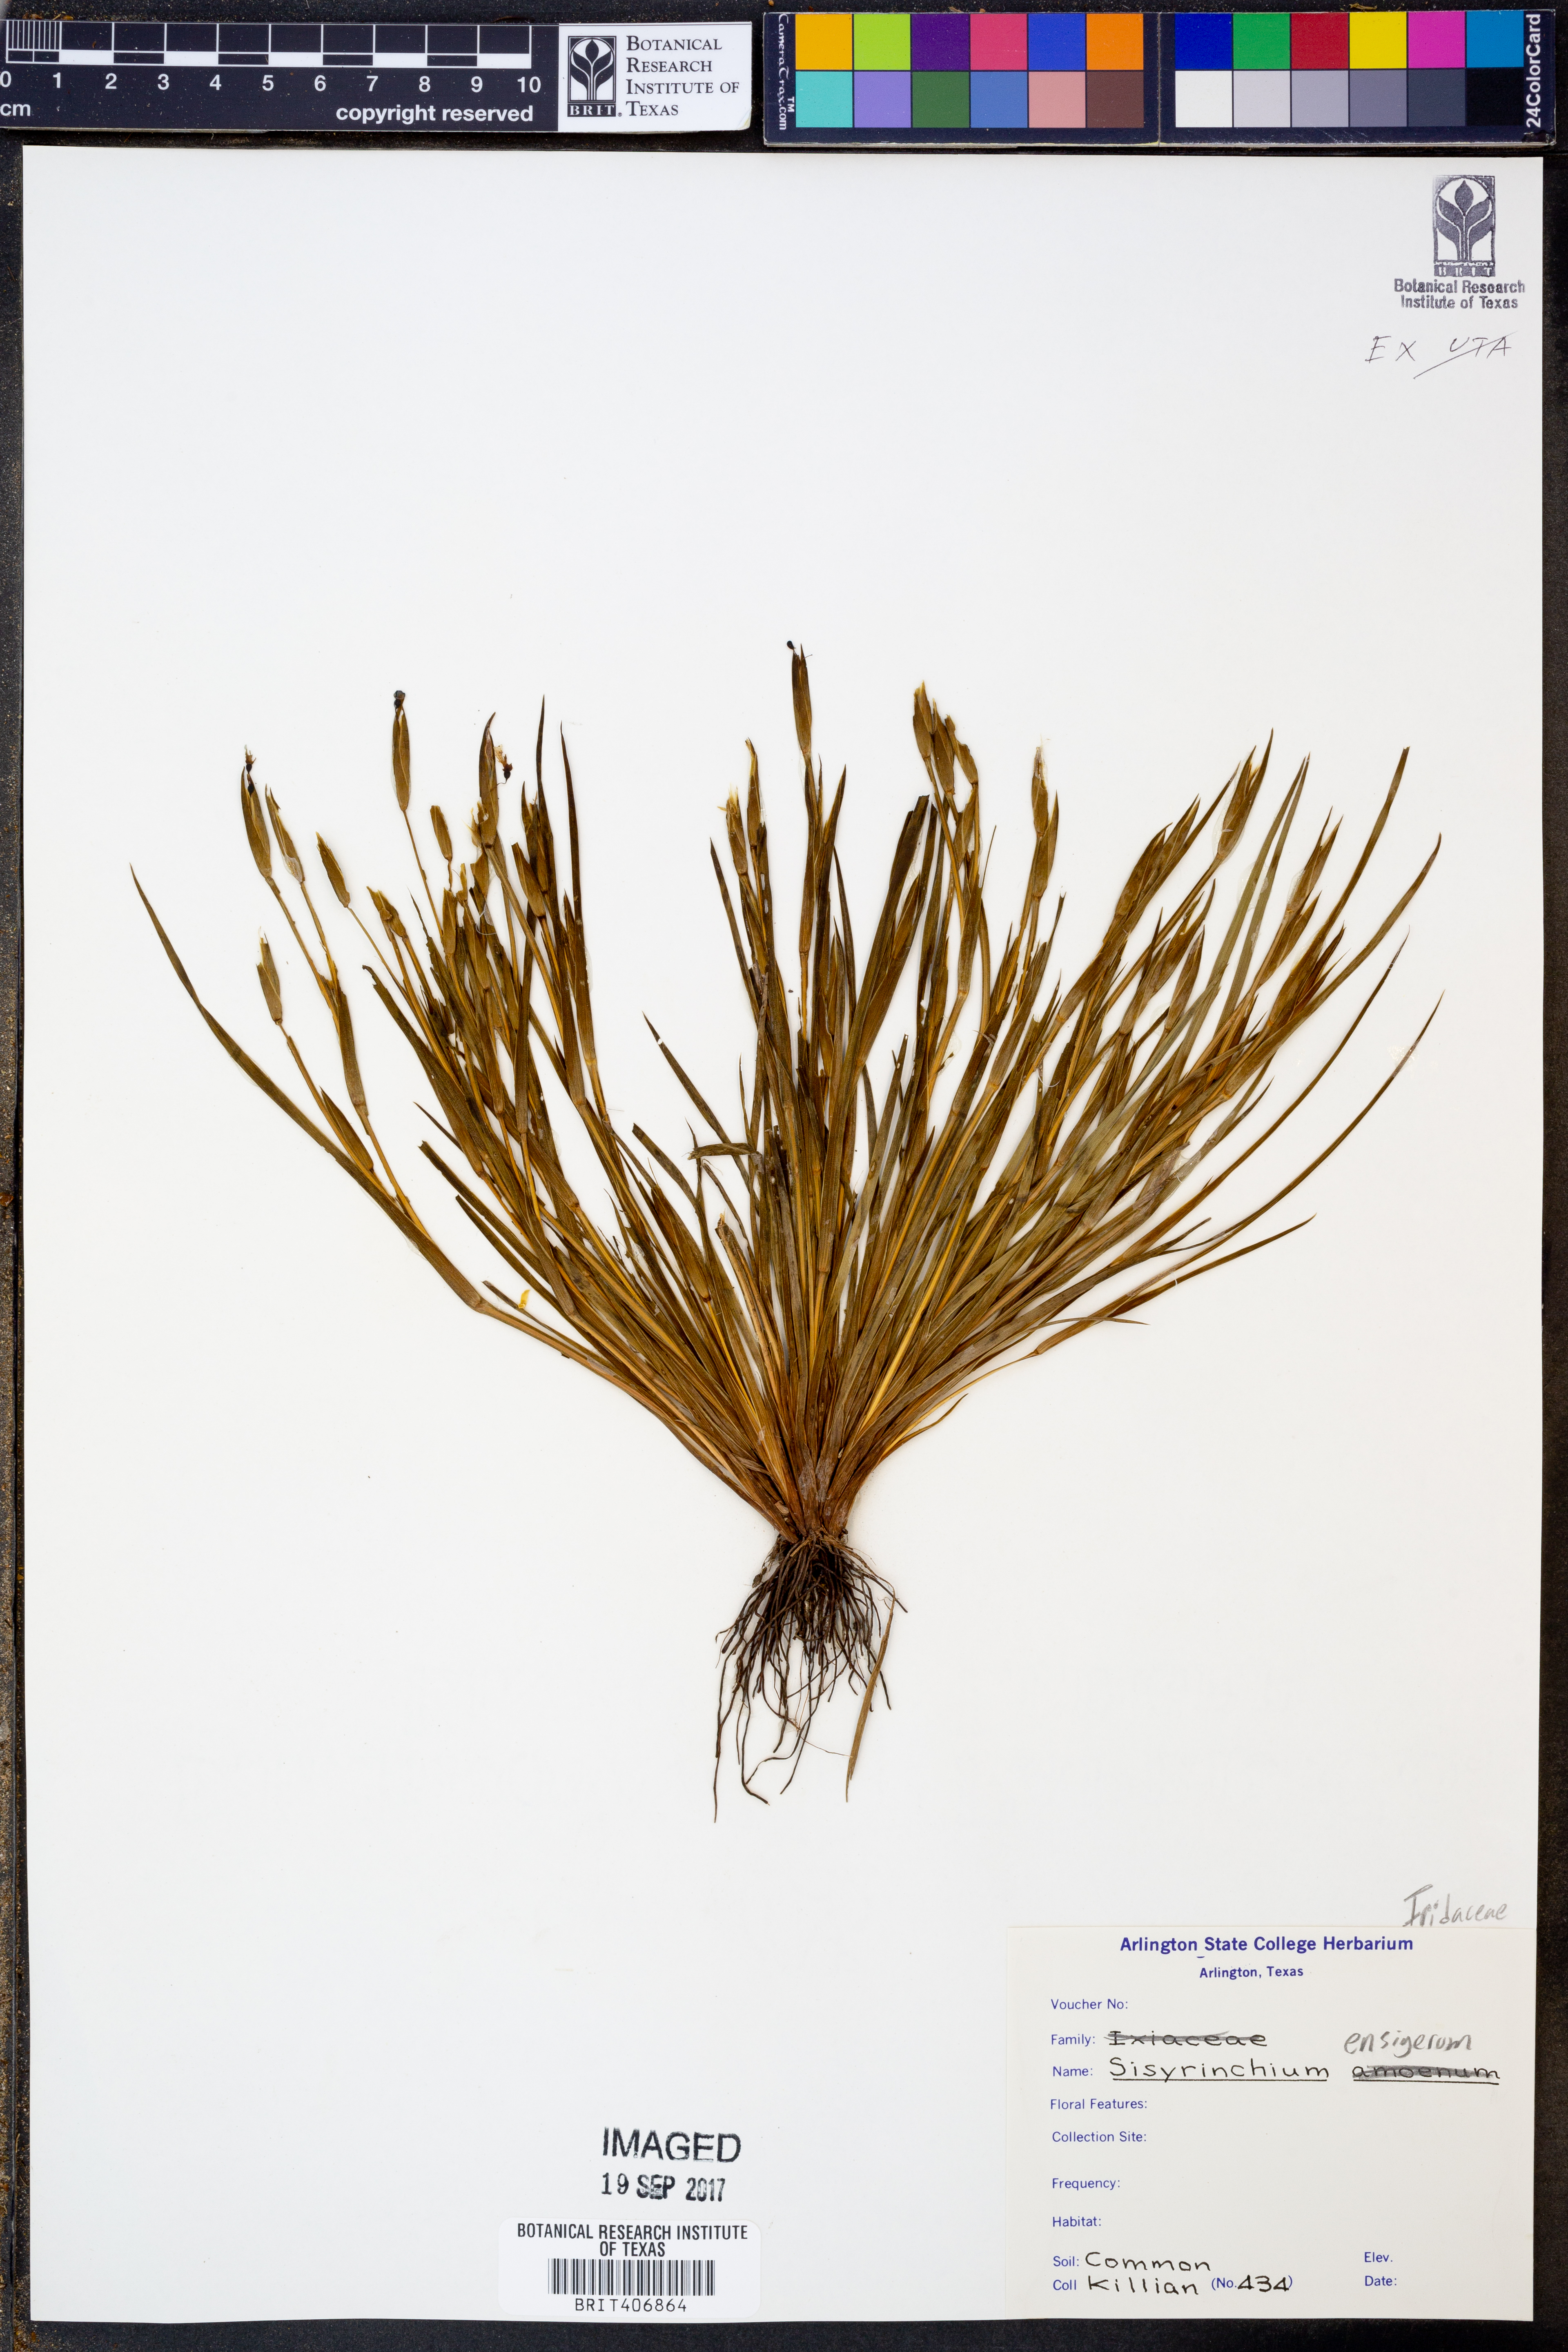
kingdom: Plantae
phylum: Tracheophyta
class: Liliopsida
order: Asparagales
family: Iridaceae
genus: Sisyrinchium
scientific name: Sisyrinchium ensigerum
